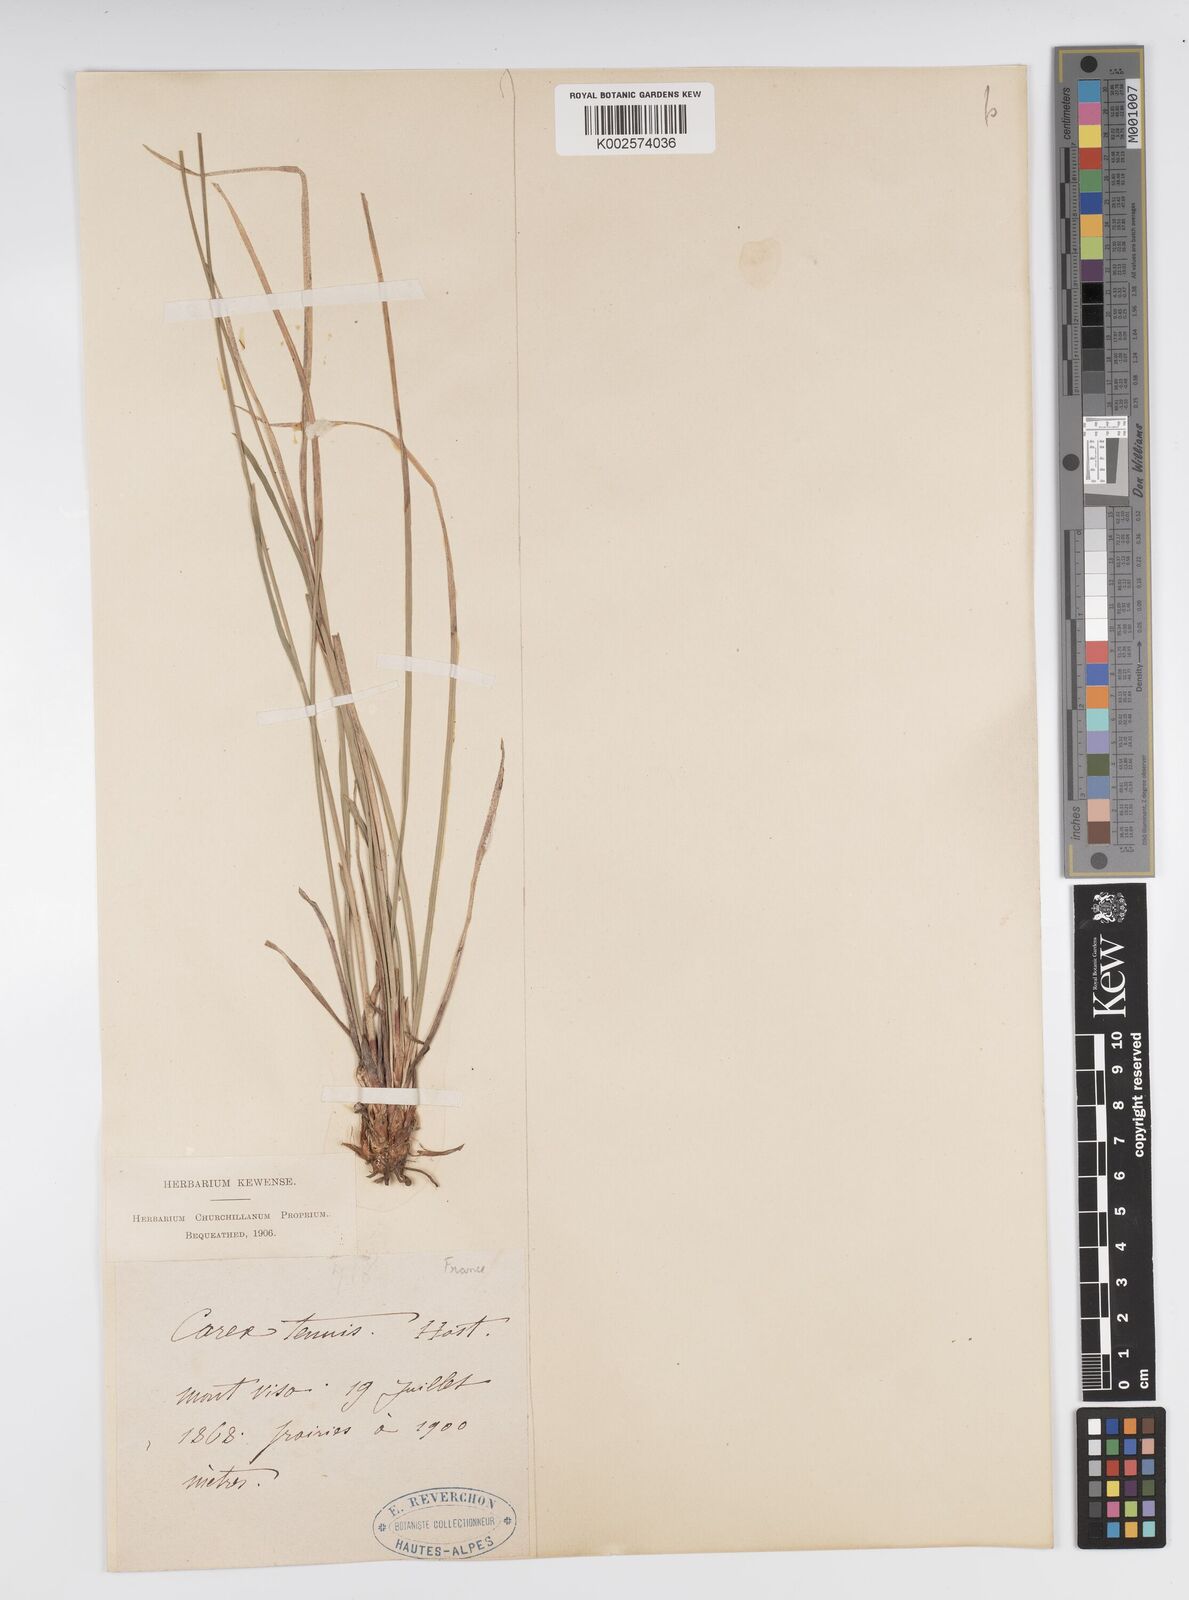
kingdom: Plantae
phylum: Tracheophyta
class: Liliopsida
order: Poales
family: Cyperaceae
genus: Carex
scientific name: Carex brachystachys
